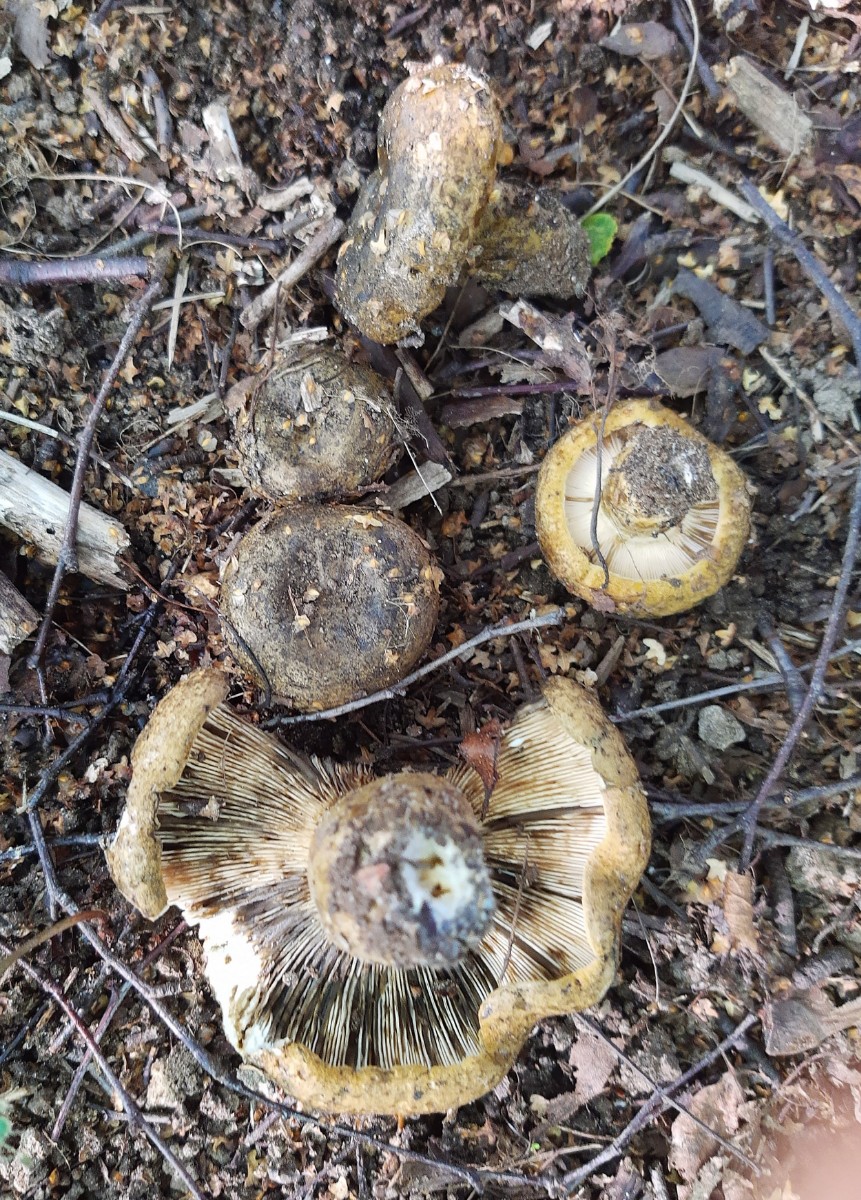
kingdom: Fungi
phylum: Basidiomycota
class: Agaricomycetes
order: Russulales
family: Russulaceae
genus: Lactarius
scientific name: Lactarius necator
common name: manddraber-mælkehat
